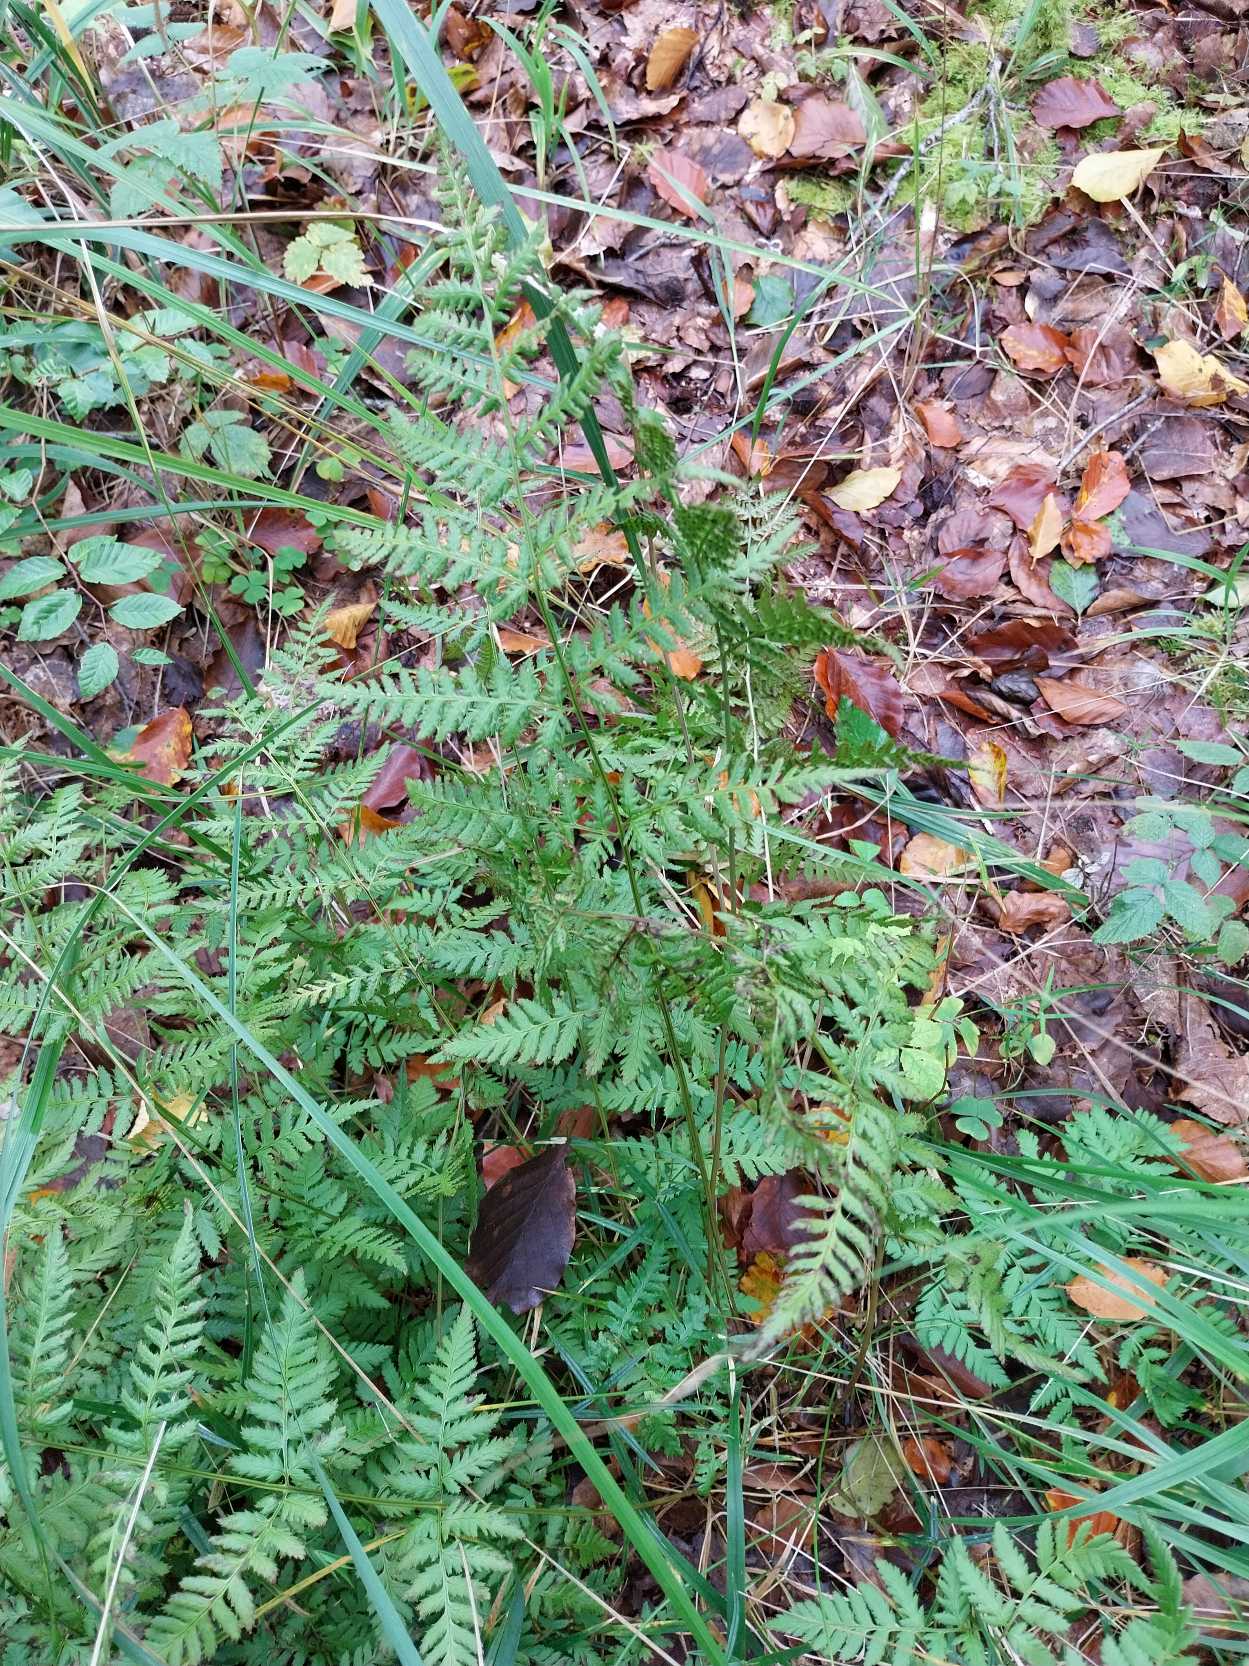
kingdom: Plantae
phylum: Tracheophyta
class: Polypodiopsida
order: Polypodiales
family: Dryopteridaceae
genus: Dryopteris
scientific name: Dryopteris carthusiana
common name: Smalbladet mangeløv
